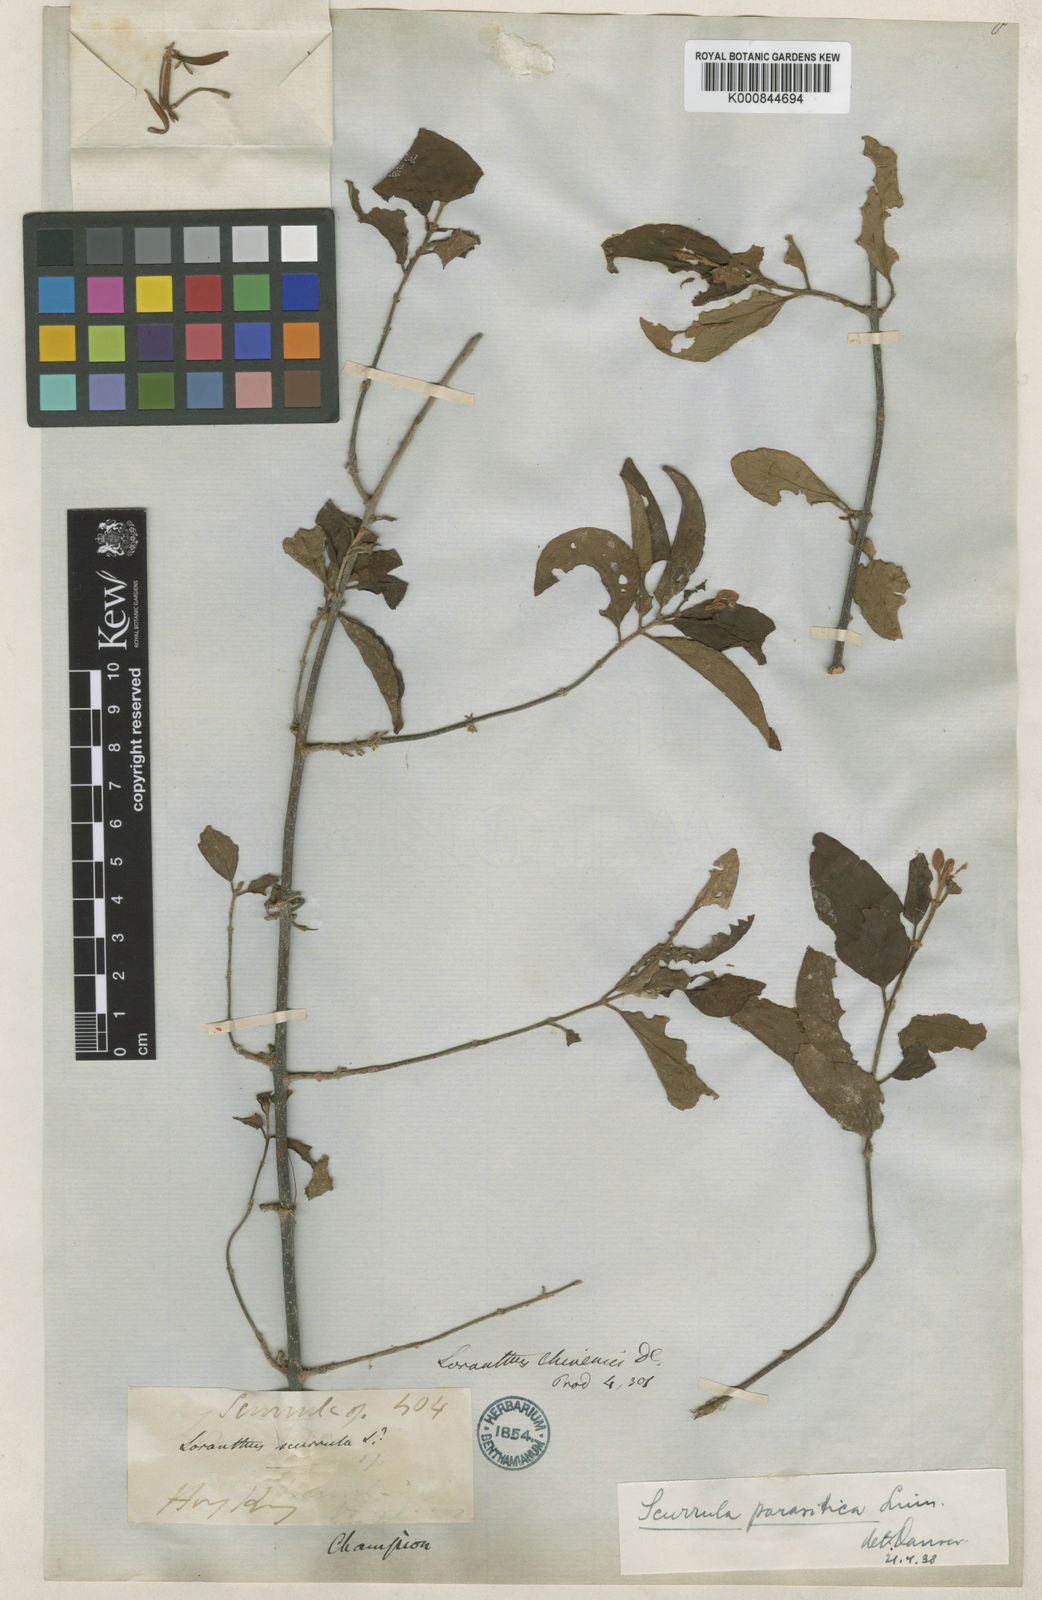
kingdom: Plantae
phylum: Tracheophyta
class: Magnoliopsida
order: Santalales
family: Loranthaceae
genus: Scurrula
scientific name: Scurrula parasitica
